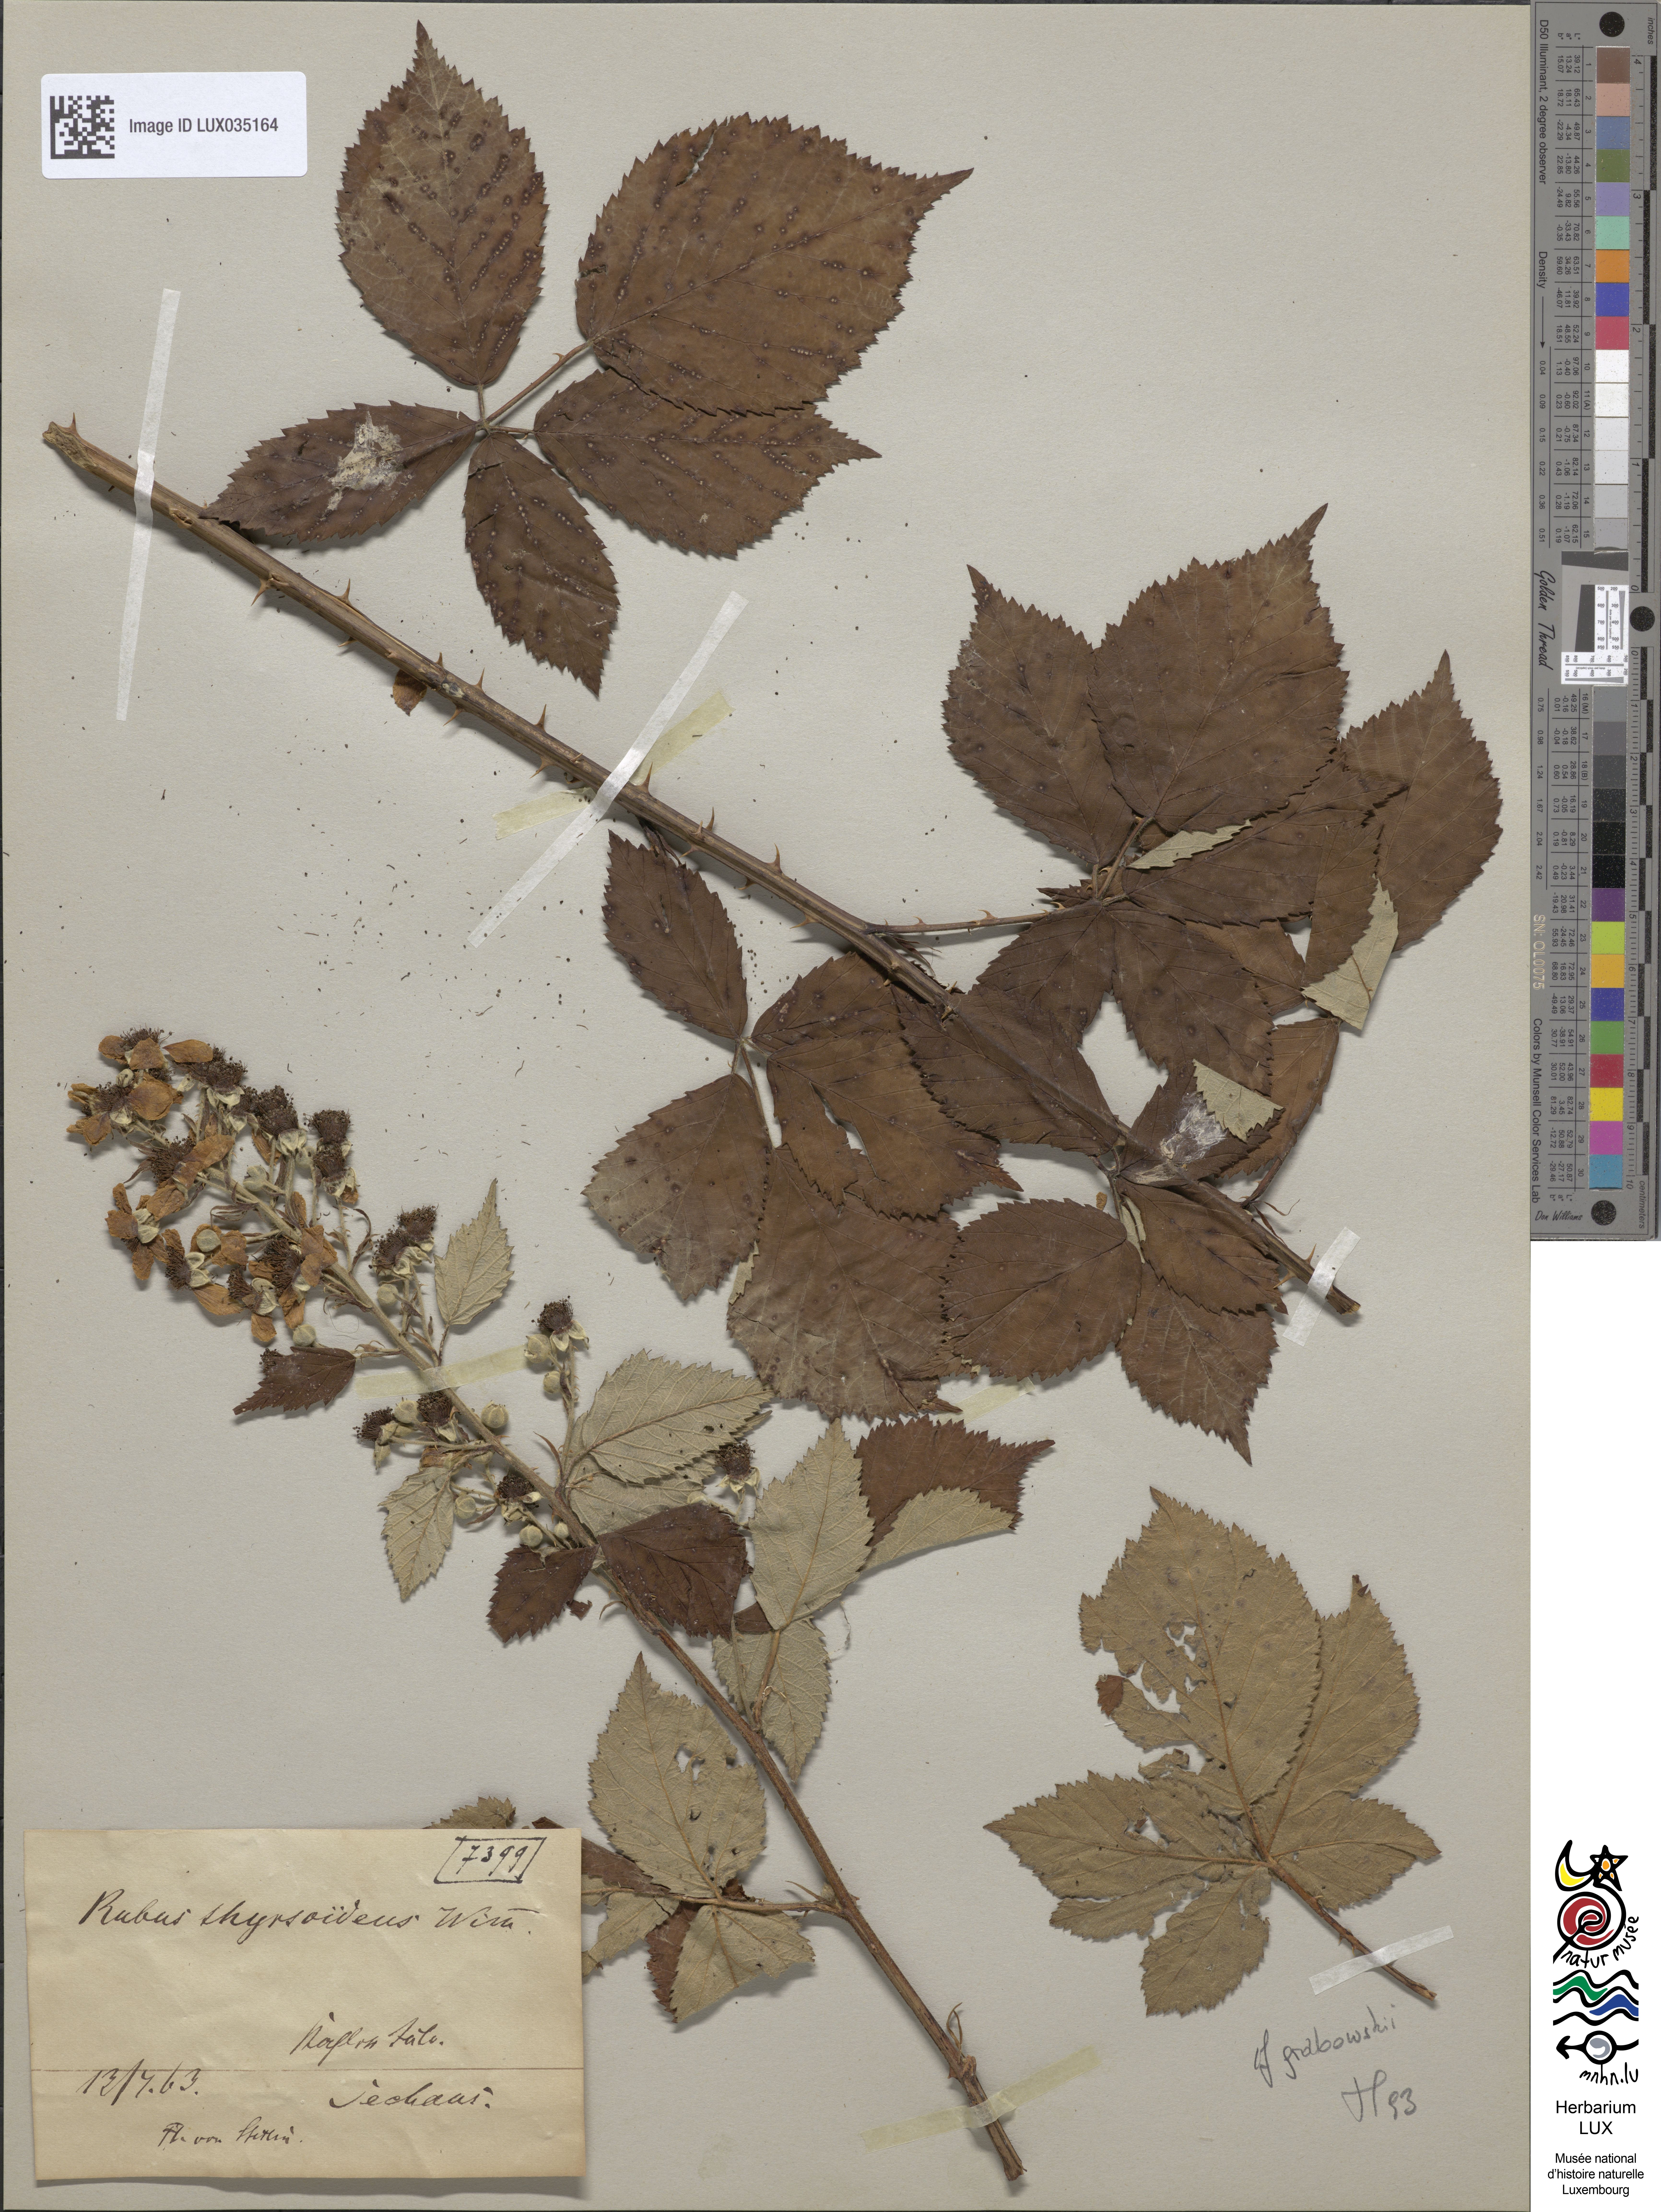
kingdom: Plantae
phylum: Tracheophyta
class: Magnoliopsida
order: Rosales
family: Rosaceae
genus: Rubus
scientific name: Rubus silesiacus
